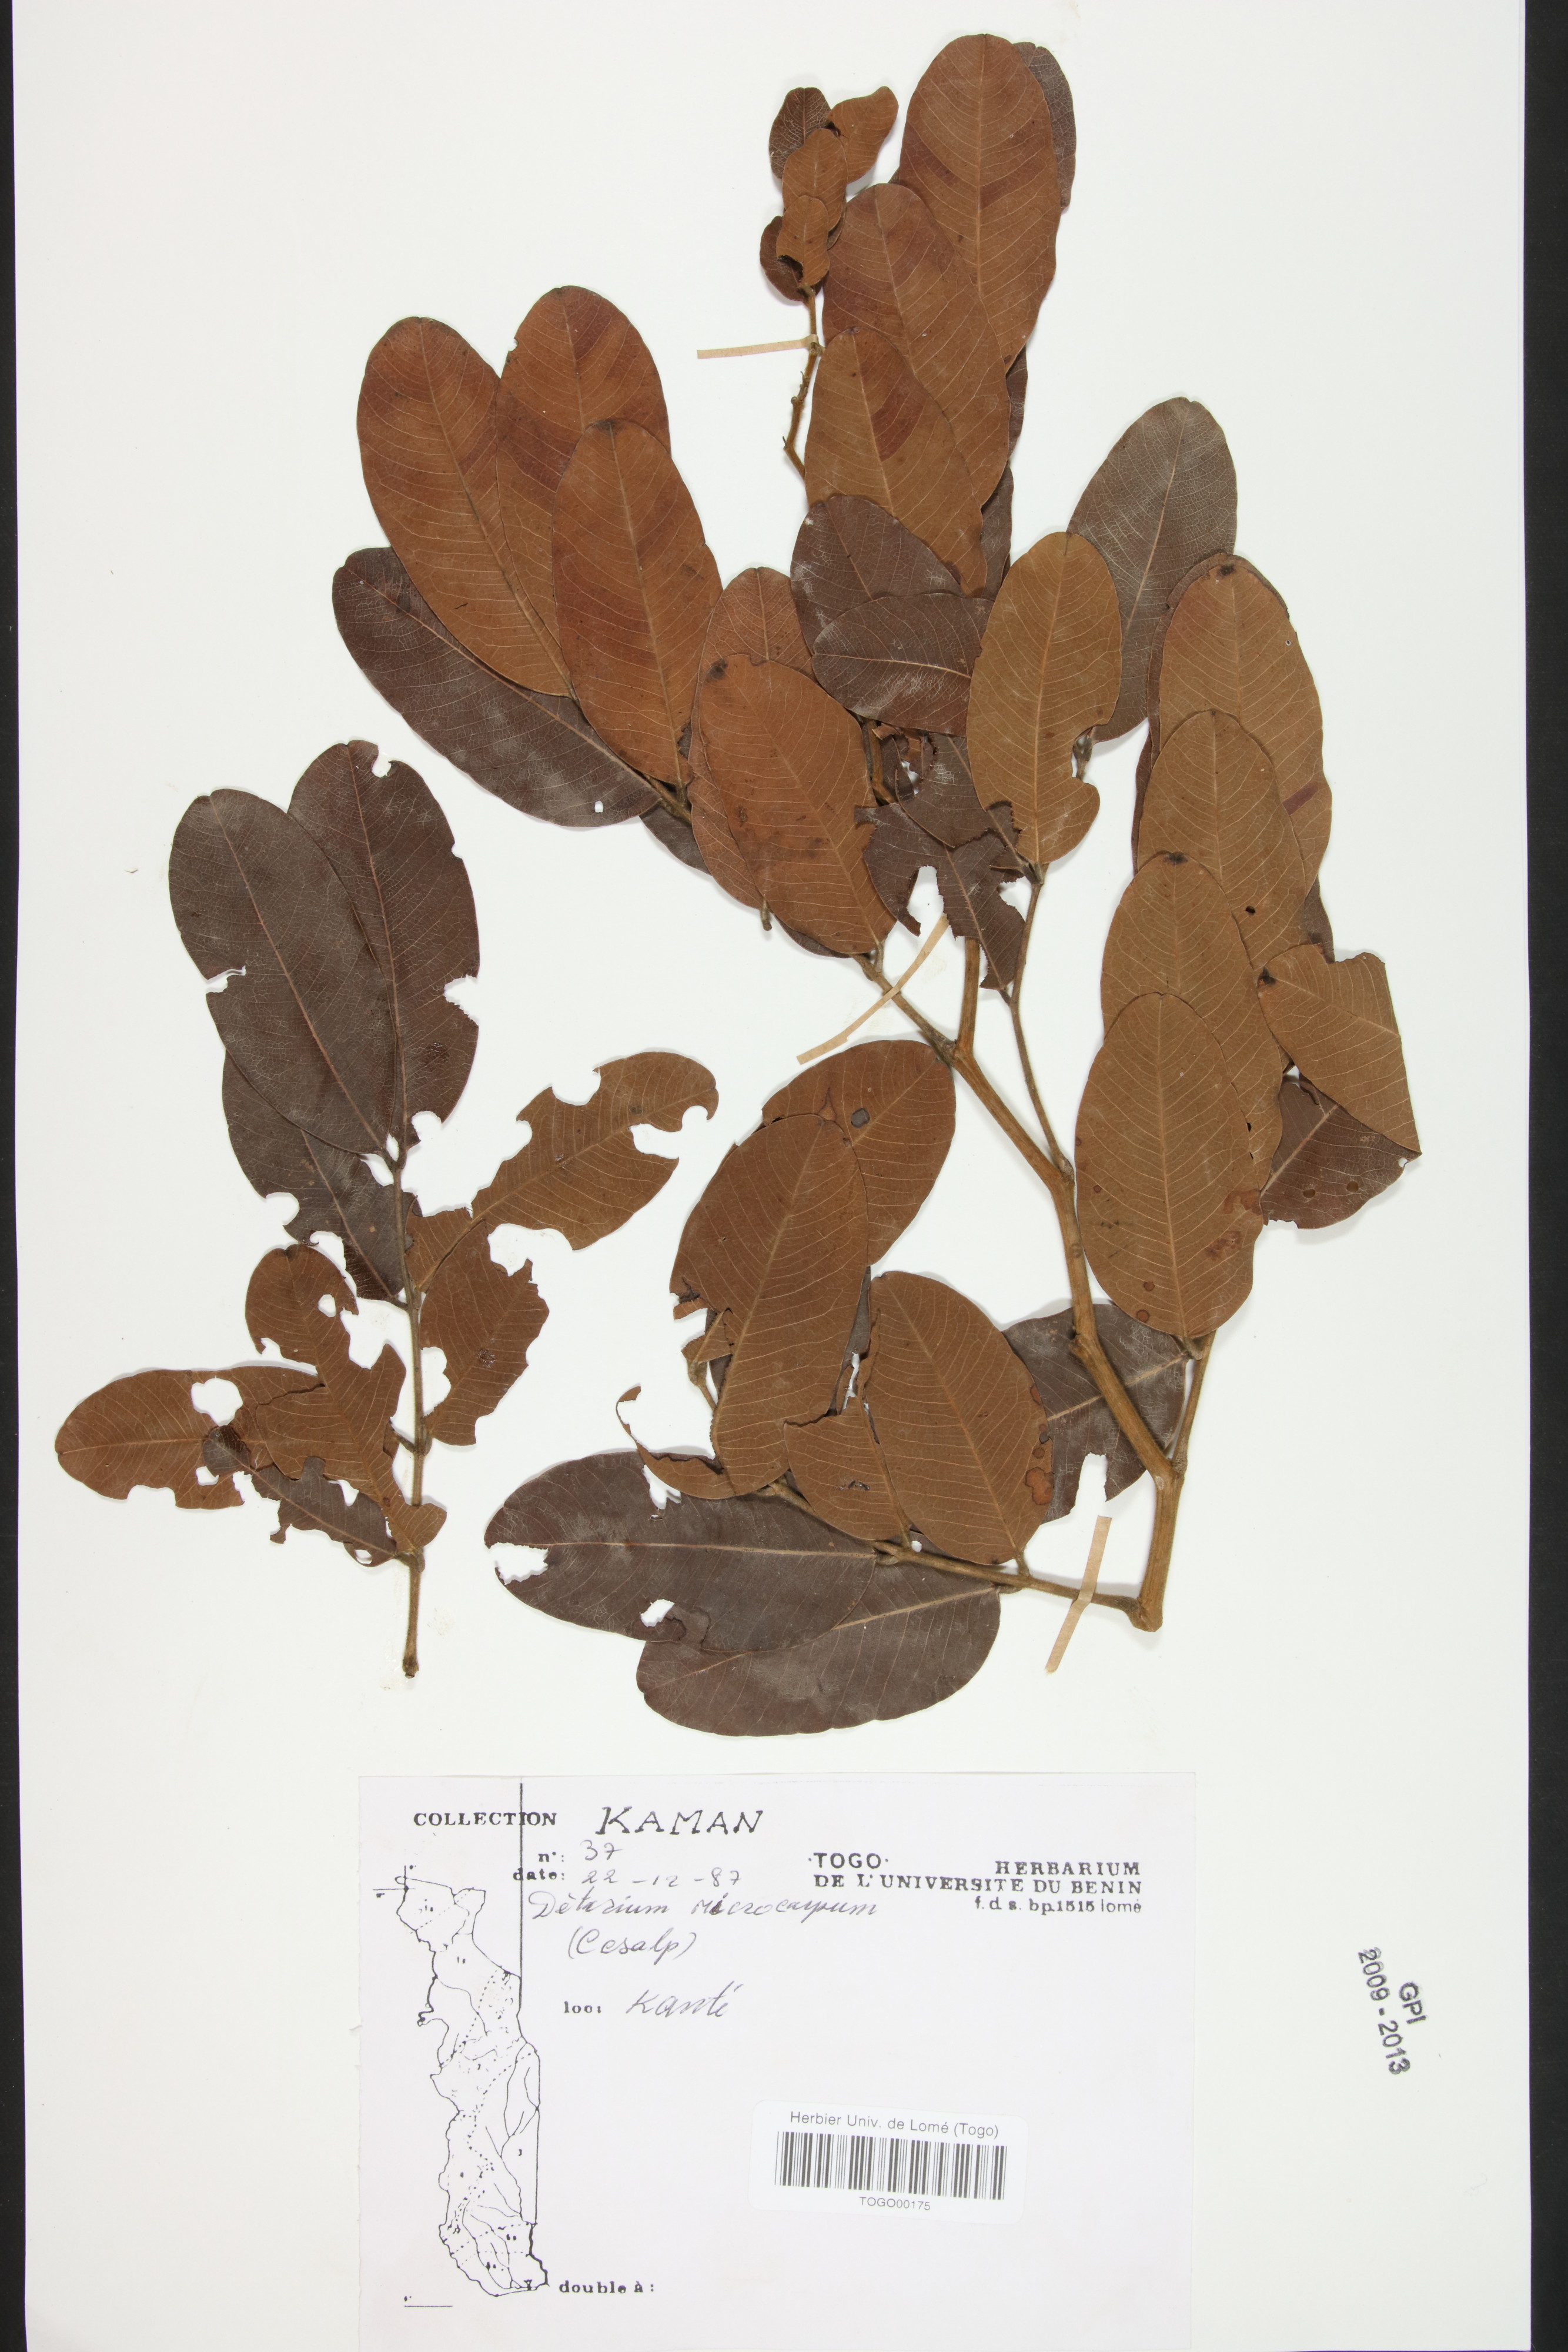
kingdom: Plantae
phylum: Tracheophyta
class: Magnoliopsida
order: Fabales
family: Fabaceae
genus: Detarium
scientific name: Detarium microcarpum
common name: Sweet dattock
